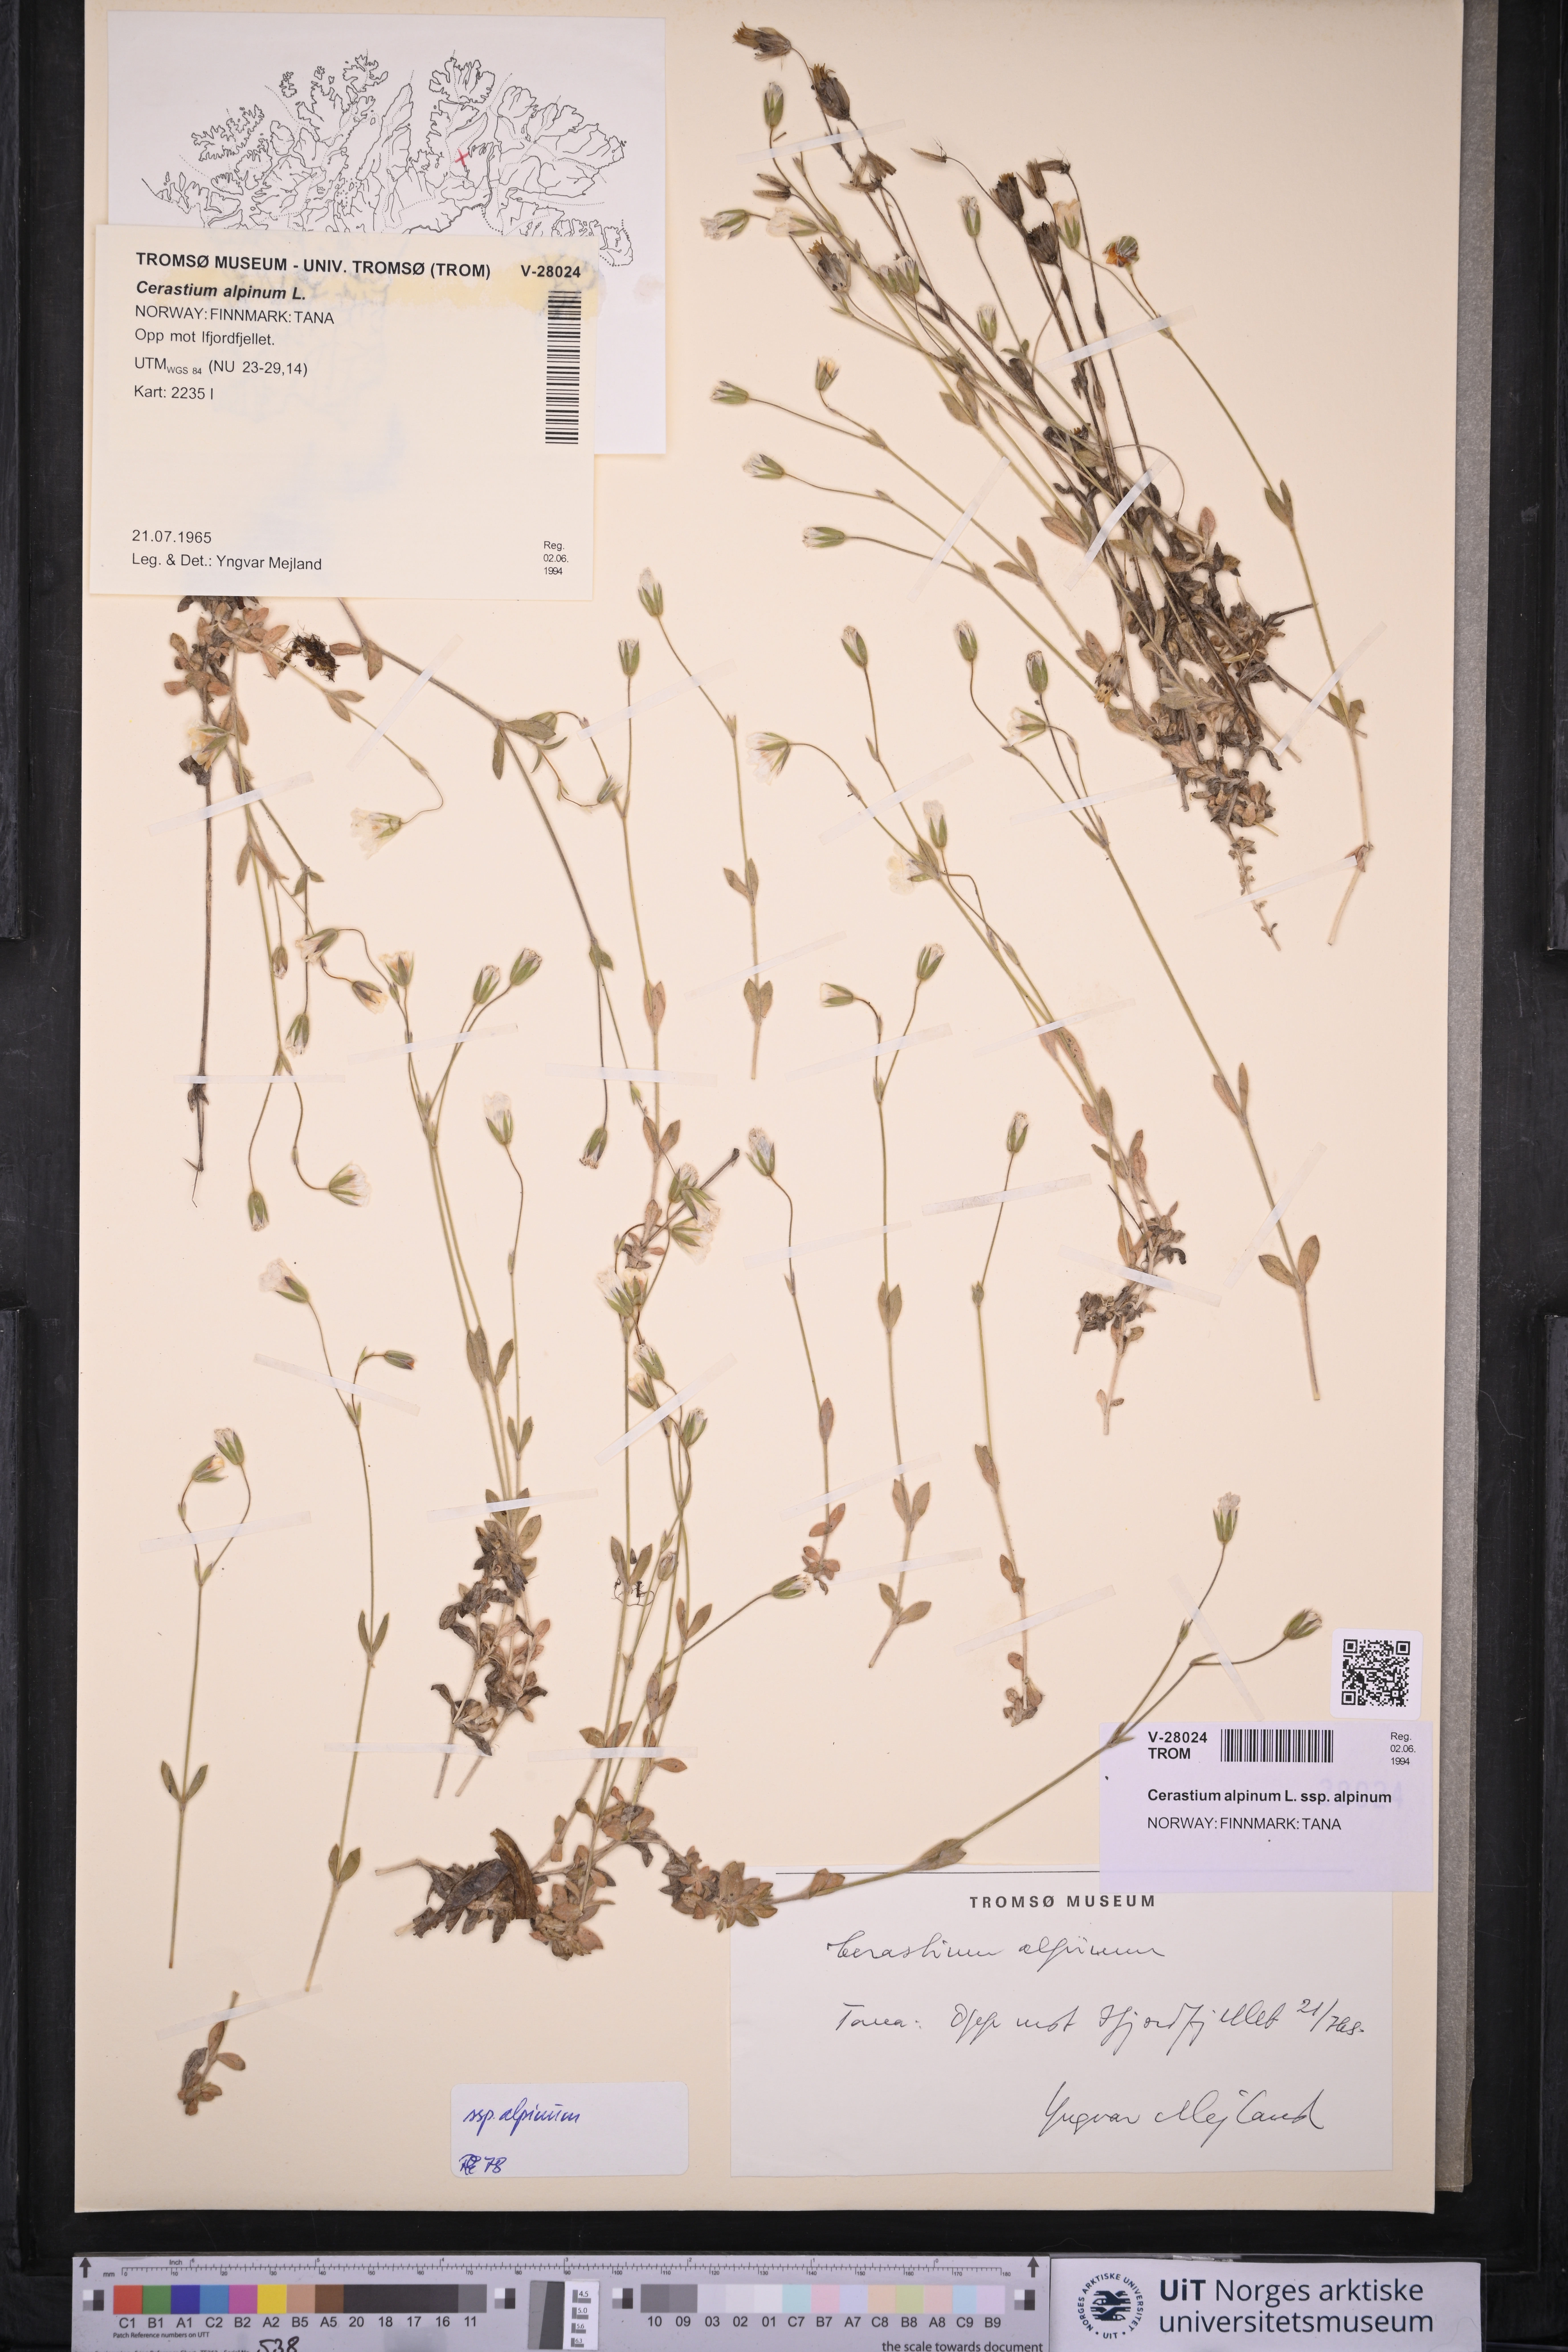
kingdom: Plantae
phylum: Tracheophyta
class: Magnoliopsida
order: Caryophyllales
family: Caryophyllaceae
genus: Cerastium
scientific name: Cerastium alpinum
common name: Alpine mouse-ear
